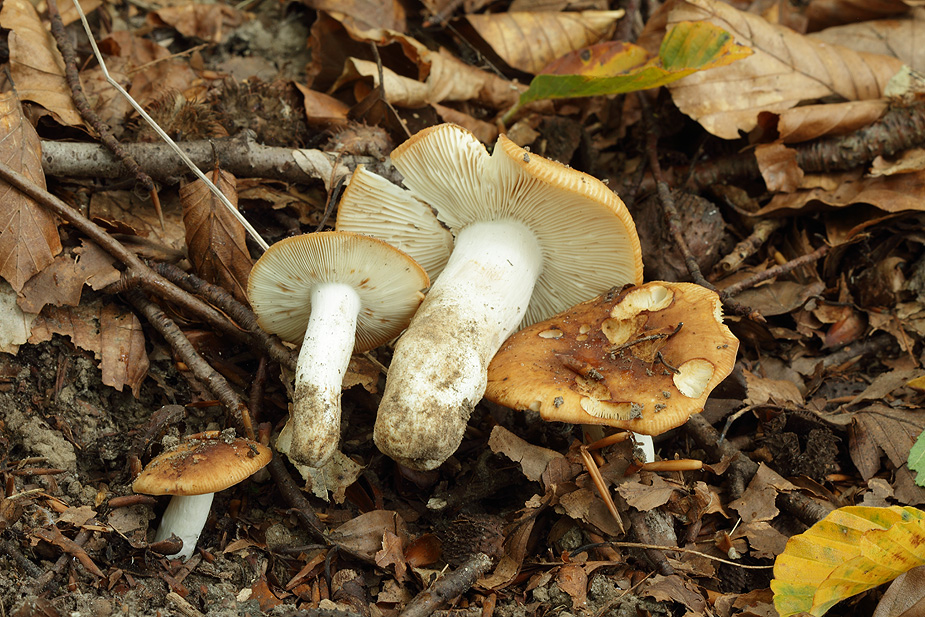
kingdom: Fungi
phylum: Basidiomycota
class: Agaricomycetes
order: Russulales
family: Russulaceae
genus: Russula
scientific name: Russula grata
